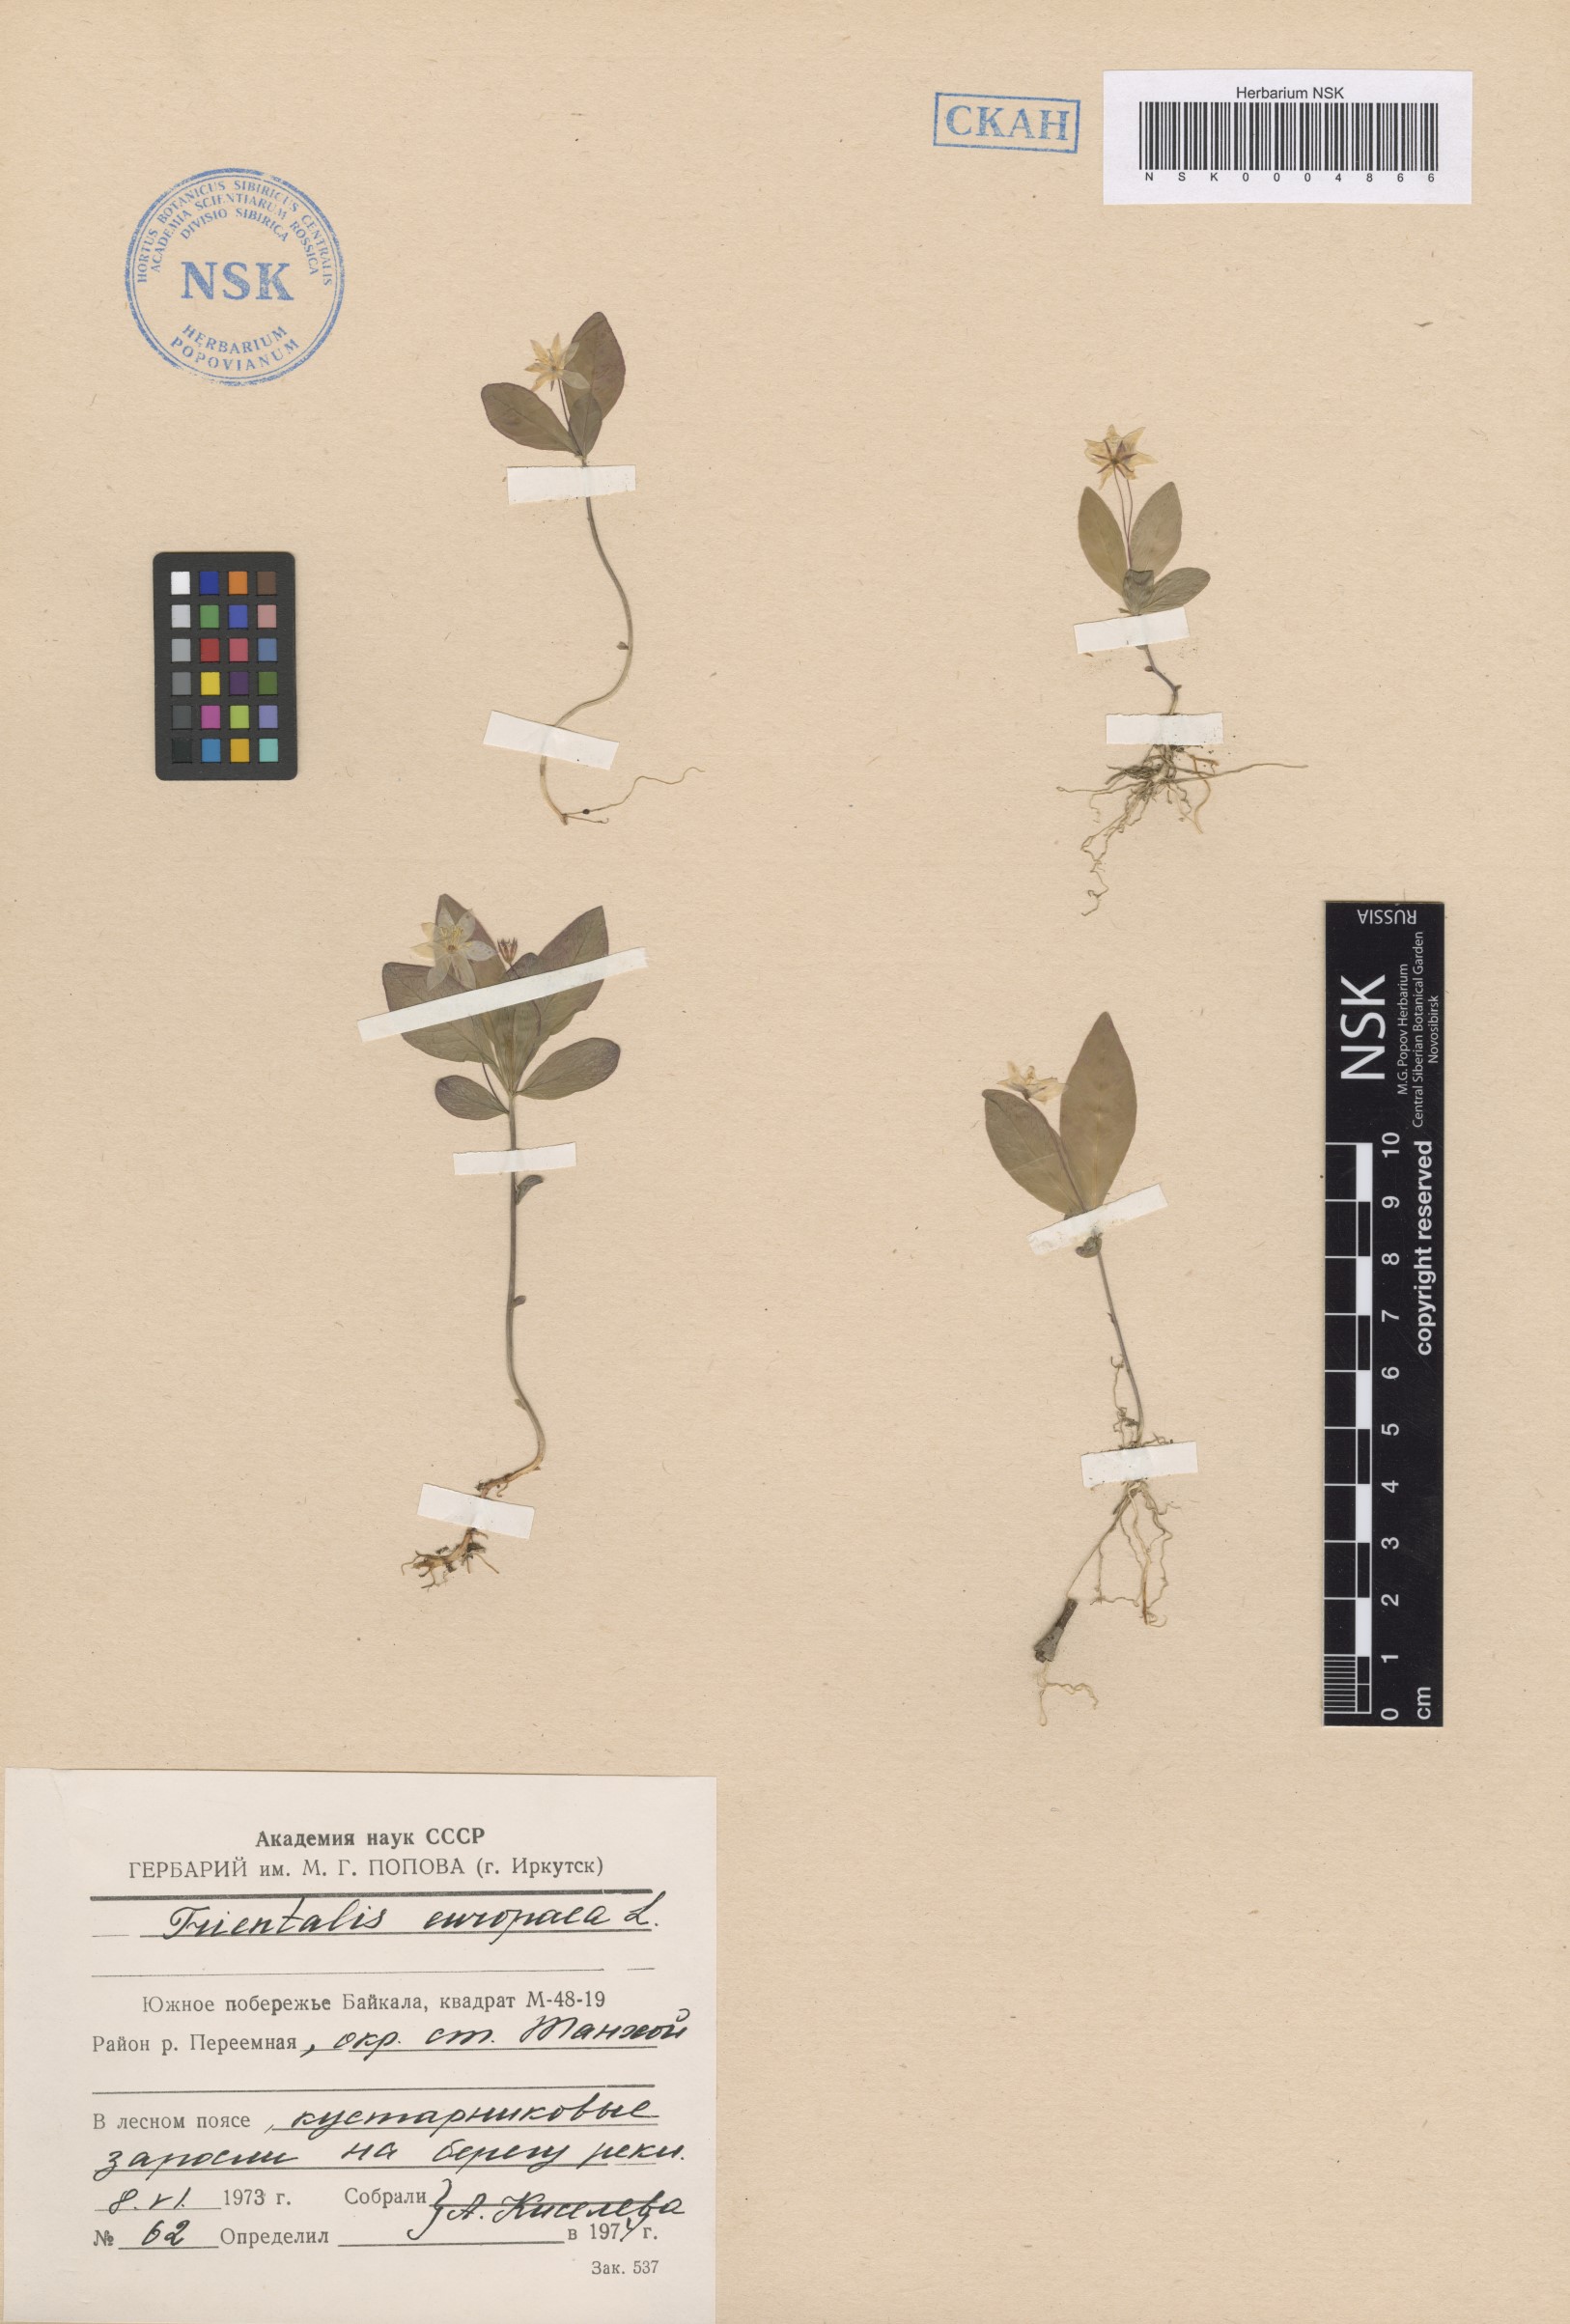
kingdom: Plantae
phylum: Tracheophyta
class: Magnoliopsida
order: Ericales
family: Primulaceae
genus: Lysimachia
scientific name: Lysimachia europaea
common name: Arctic starflower
